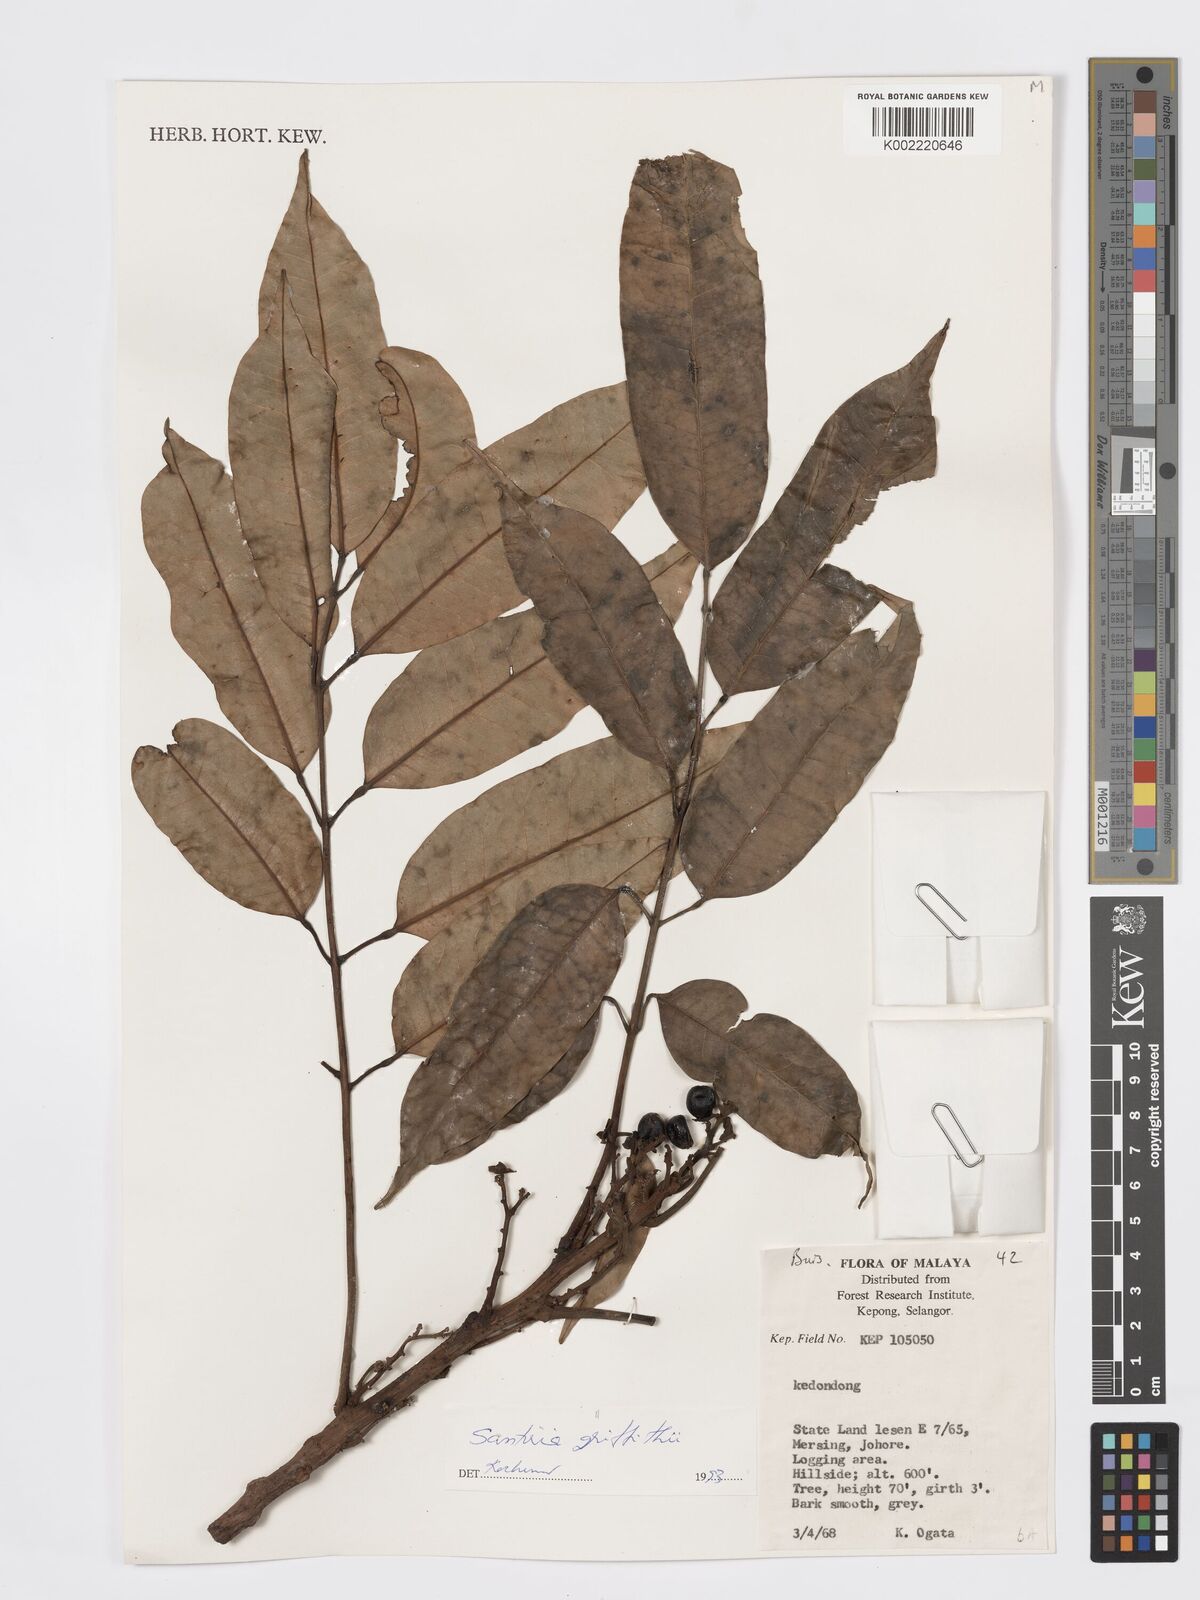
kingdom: Plantae
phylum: Tracheophyta
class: Magnoliopsida
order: Sapindales
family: Burseraceae
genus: Santiria
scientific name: Santiria griffithii
